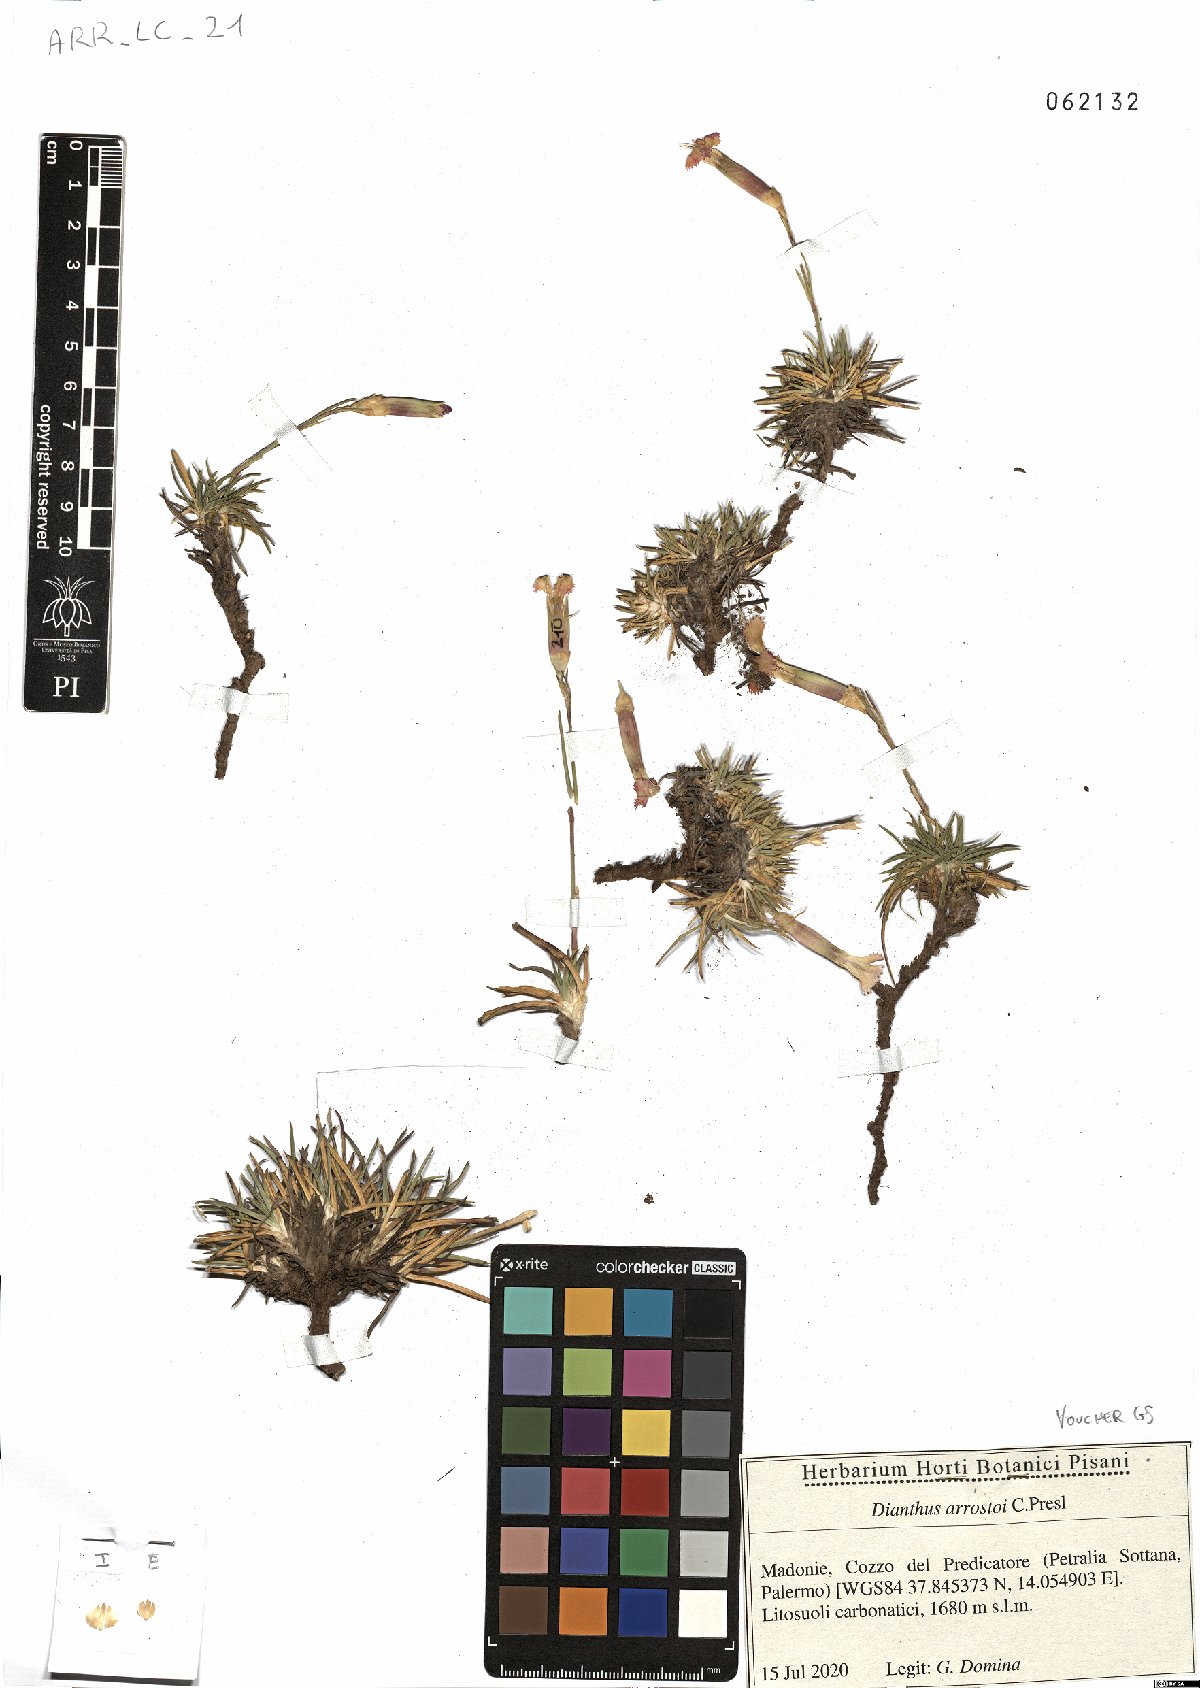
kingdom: Plantae
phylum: Tracheophyta
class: Magnoliopsida
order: Caryophyllales
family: Caryophyllaceae
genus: Dianthus
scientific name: Dianthus arrostoi
